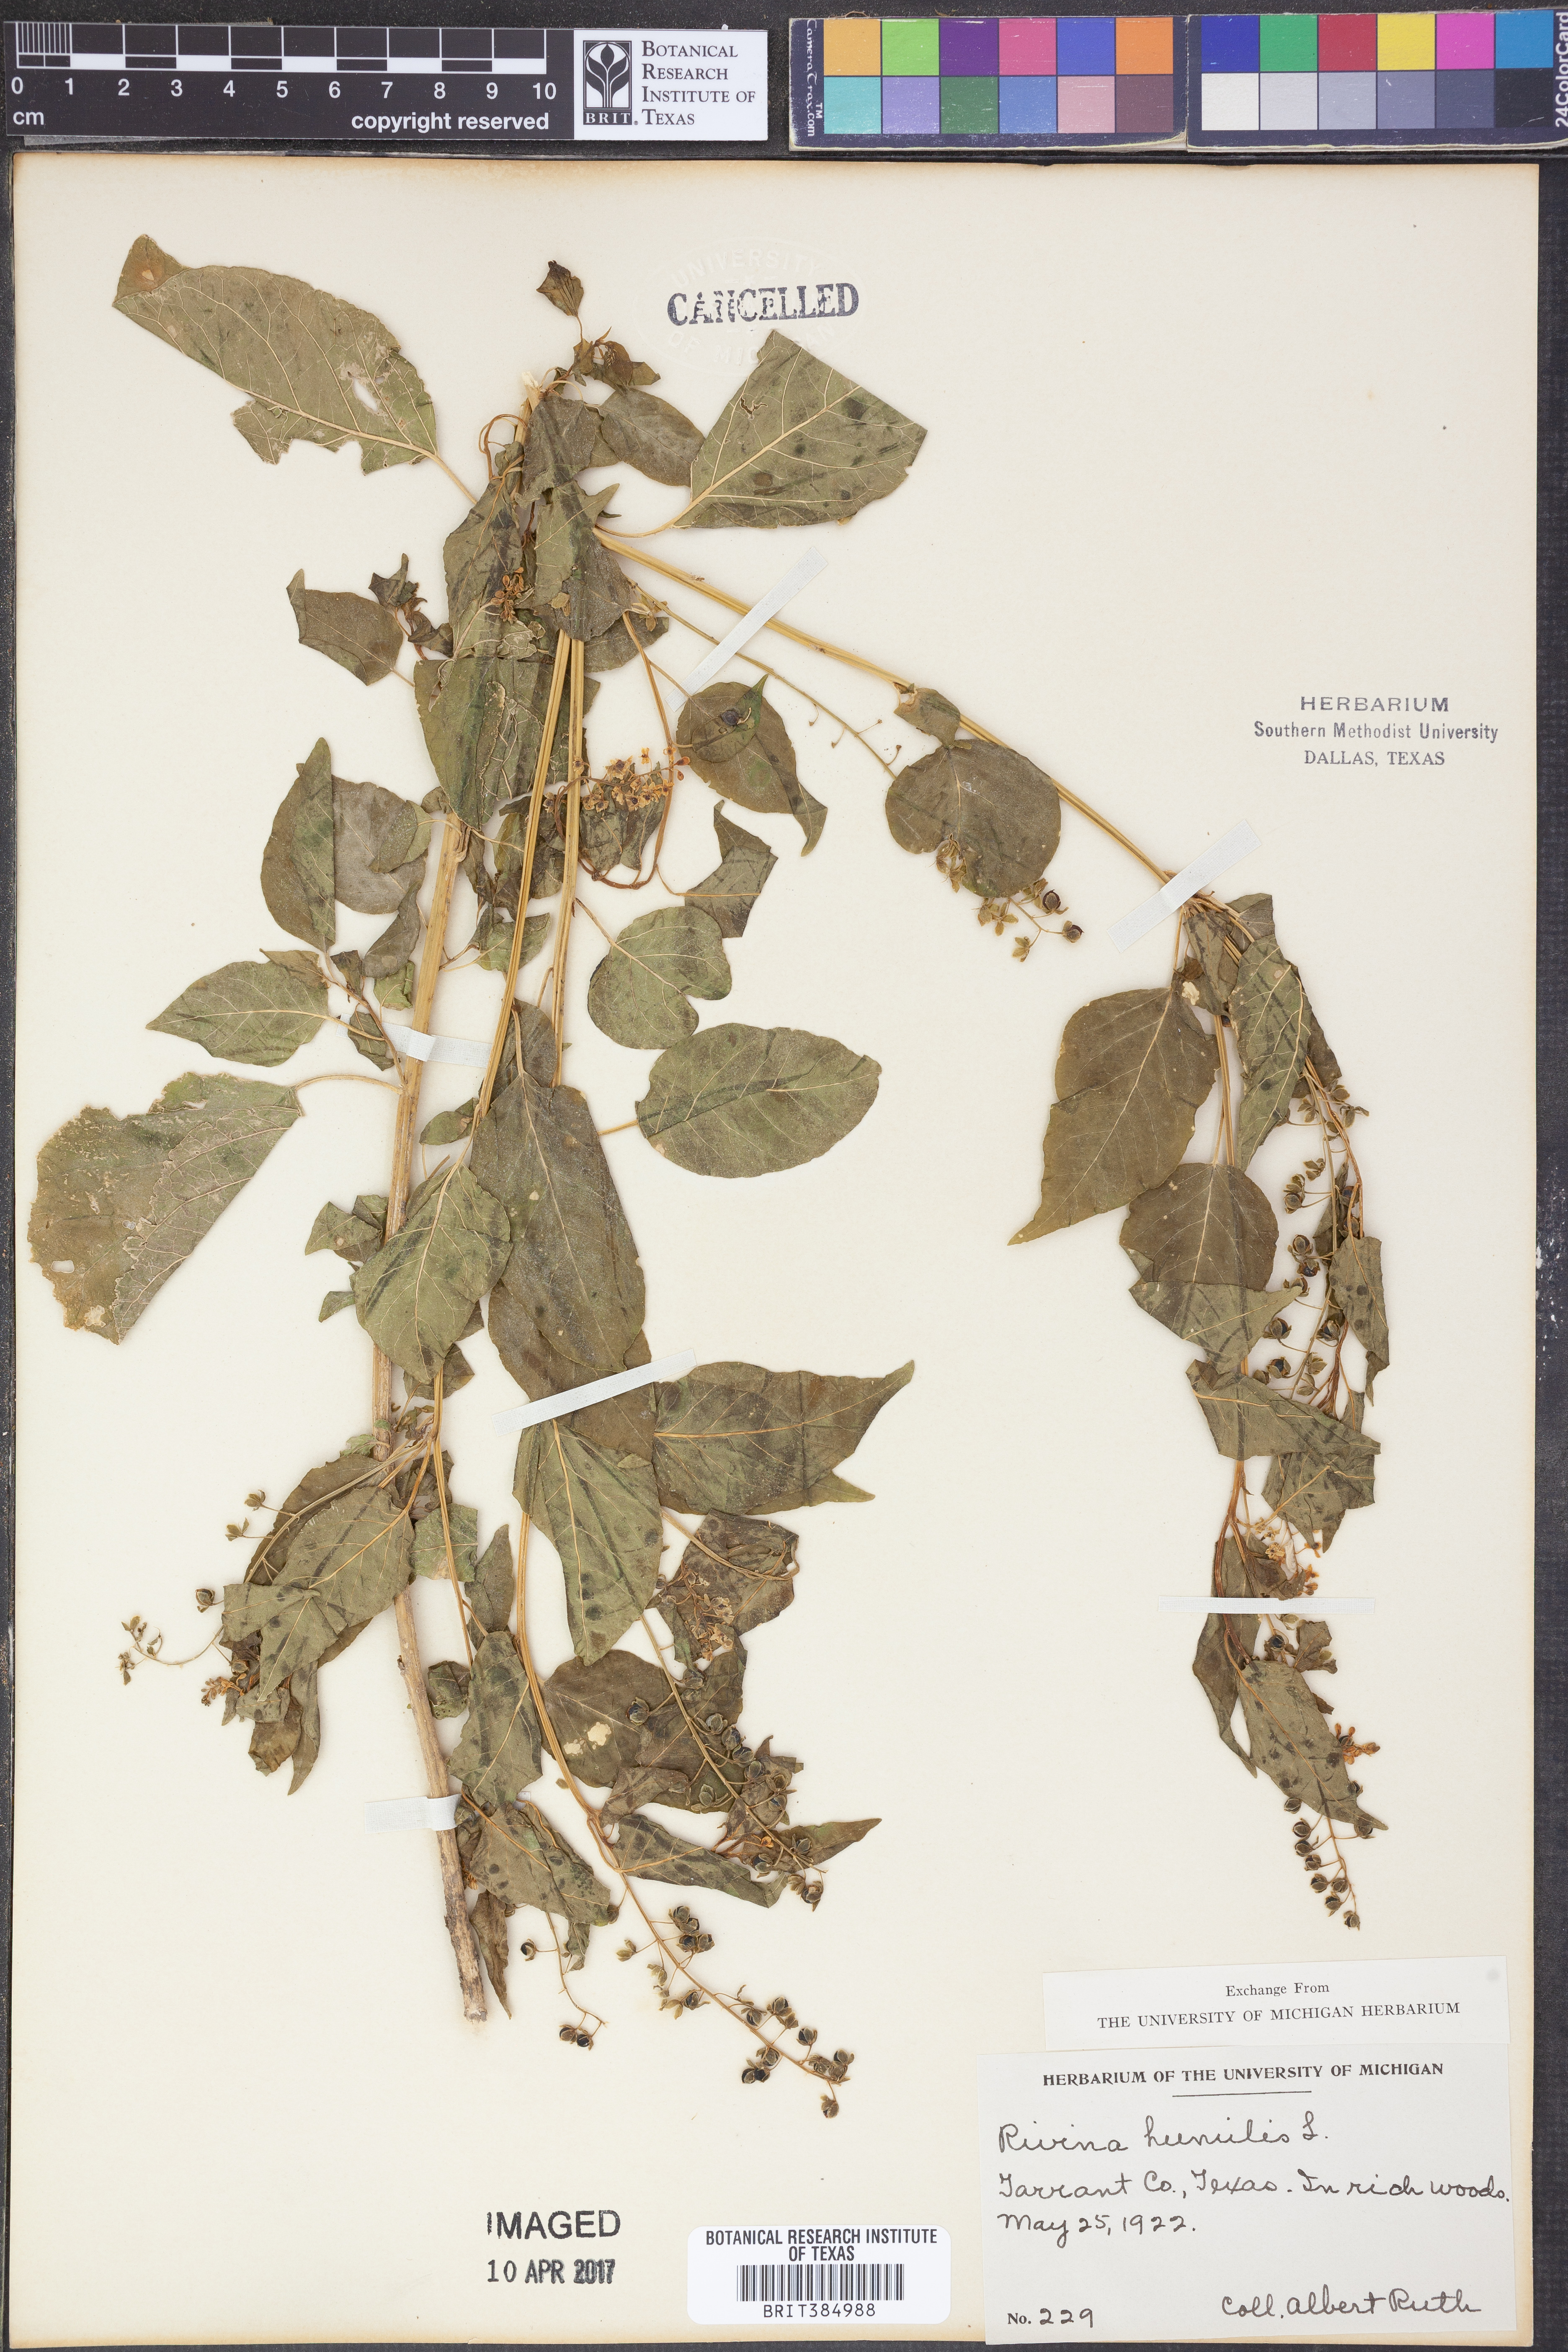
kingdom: Plantae
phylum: Tracheophyta
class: Magnoliopsida
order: Caryophyllales
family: Phytolaccaceae
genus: Rivina
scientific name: Rivina humilis
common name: Rougeplant
